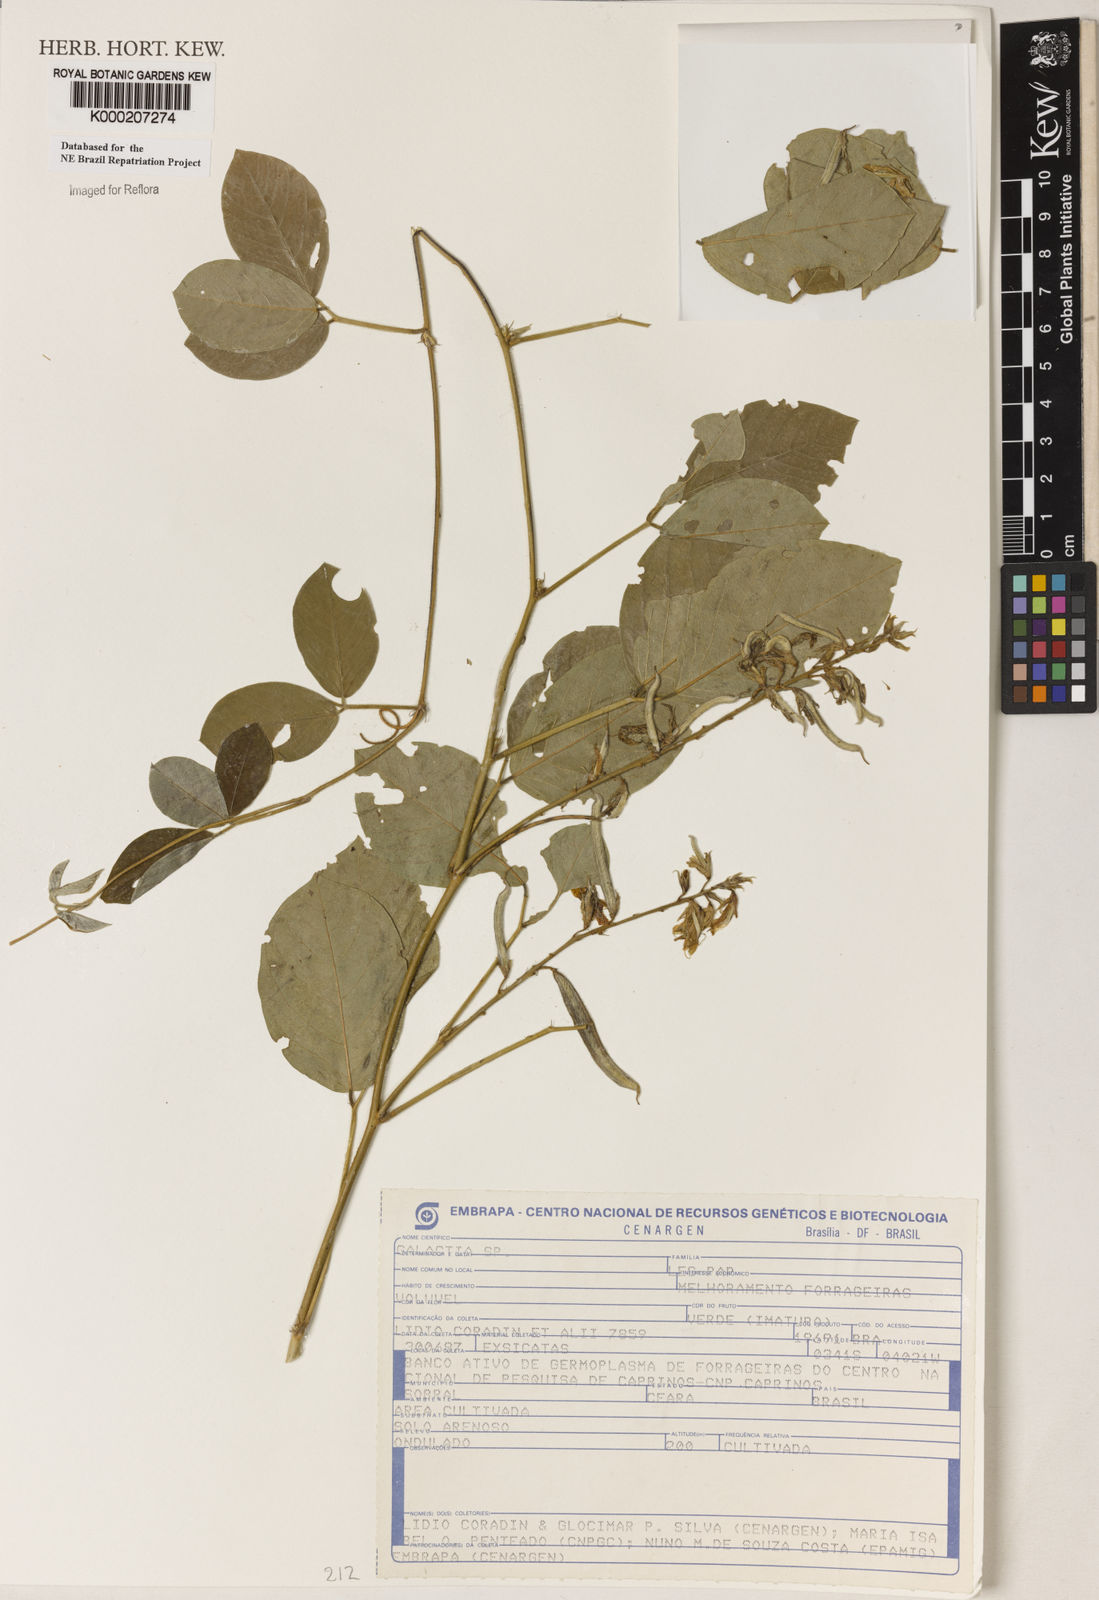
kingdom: Plantae
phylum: Tracheophyta
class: Magnoliopsida
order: Fabales
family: Fabaceae
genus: Galactia
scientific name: Galactia
